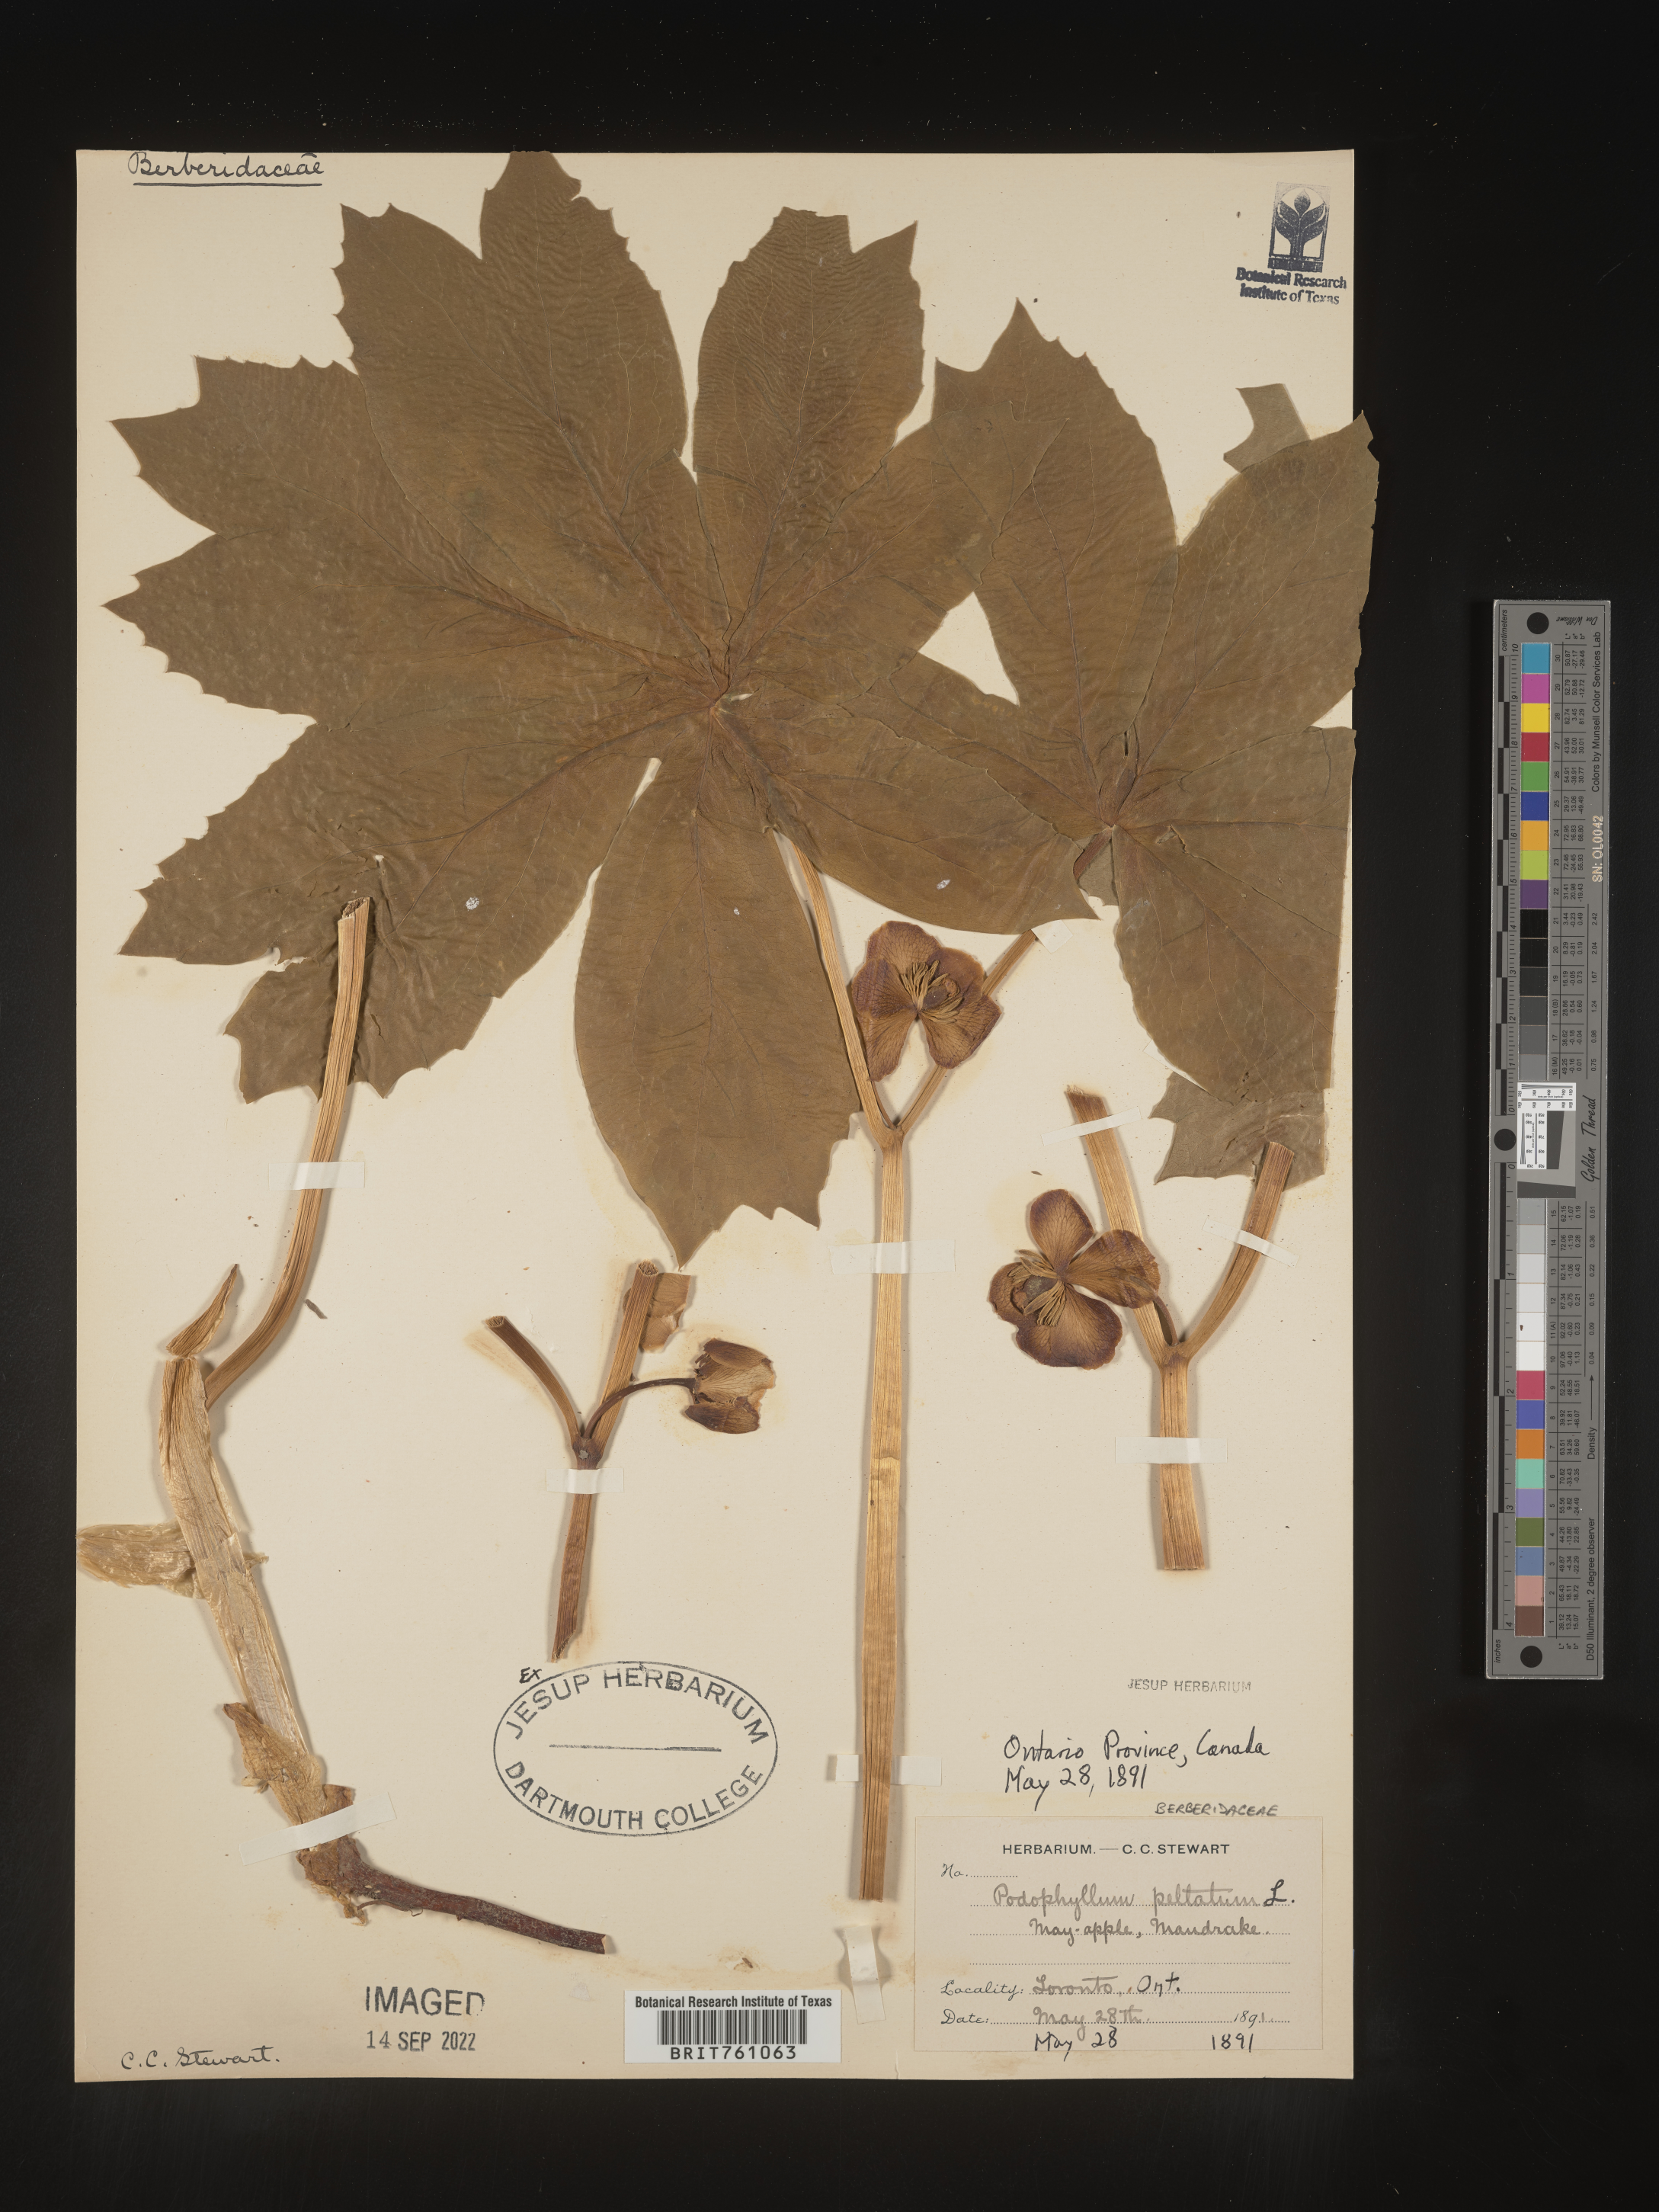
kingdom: Plantae
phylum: Tracheophyta
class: Magnoliopsida
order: Ranunculales
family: Berberidaceae
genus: Podophyllum
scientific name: Podophyllum peltatum
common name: Wild mandrake
